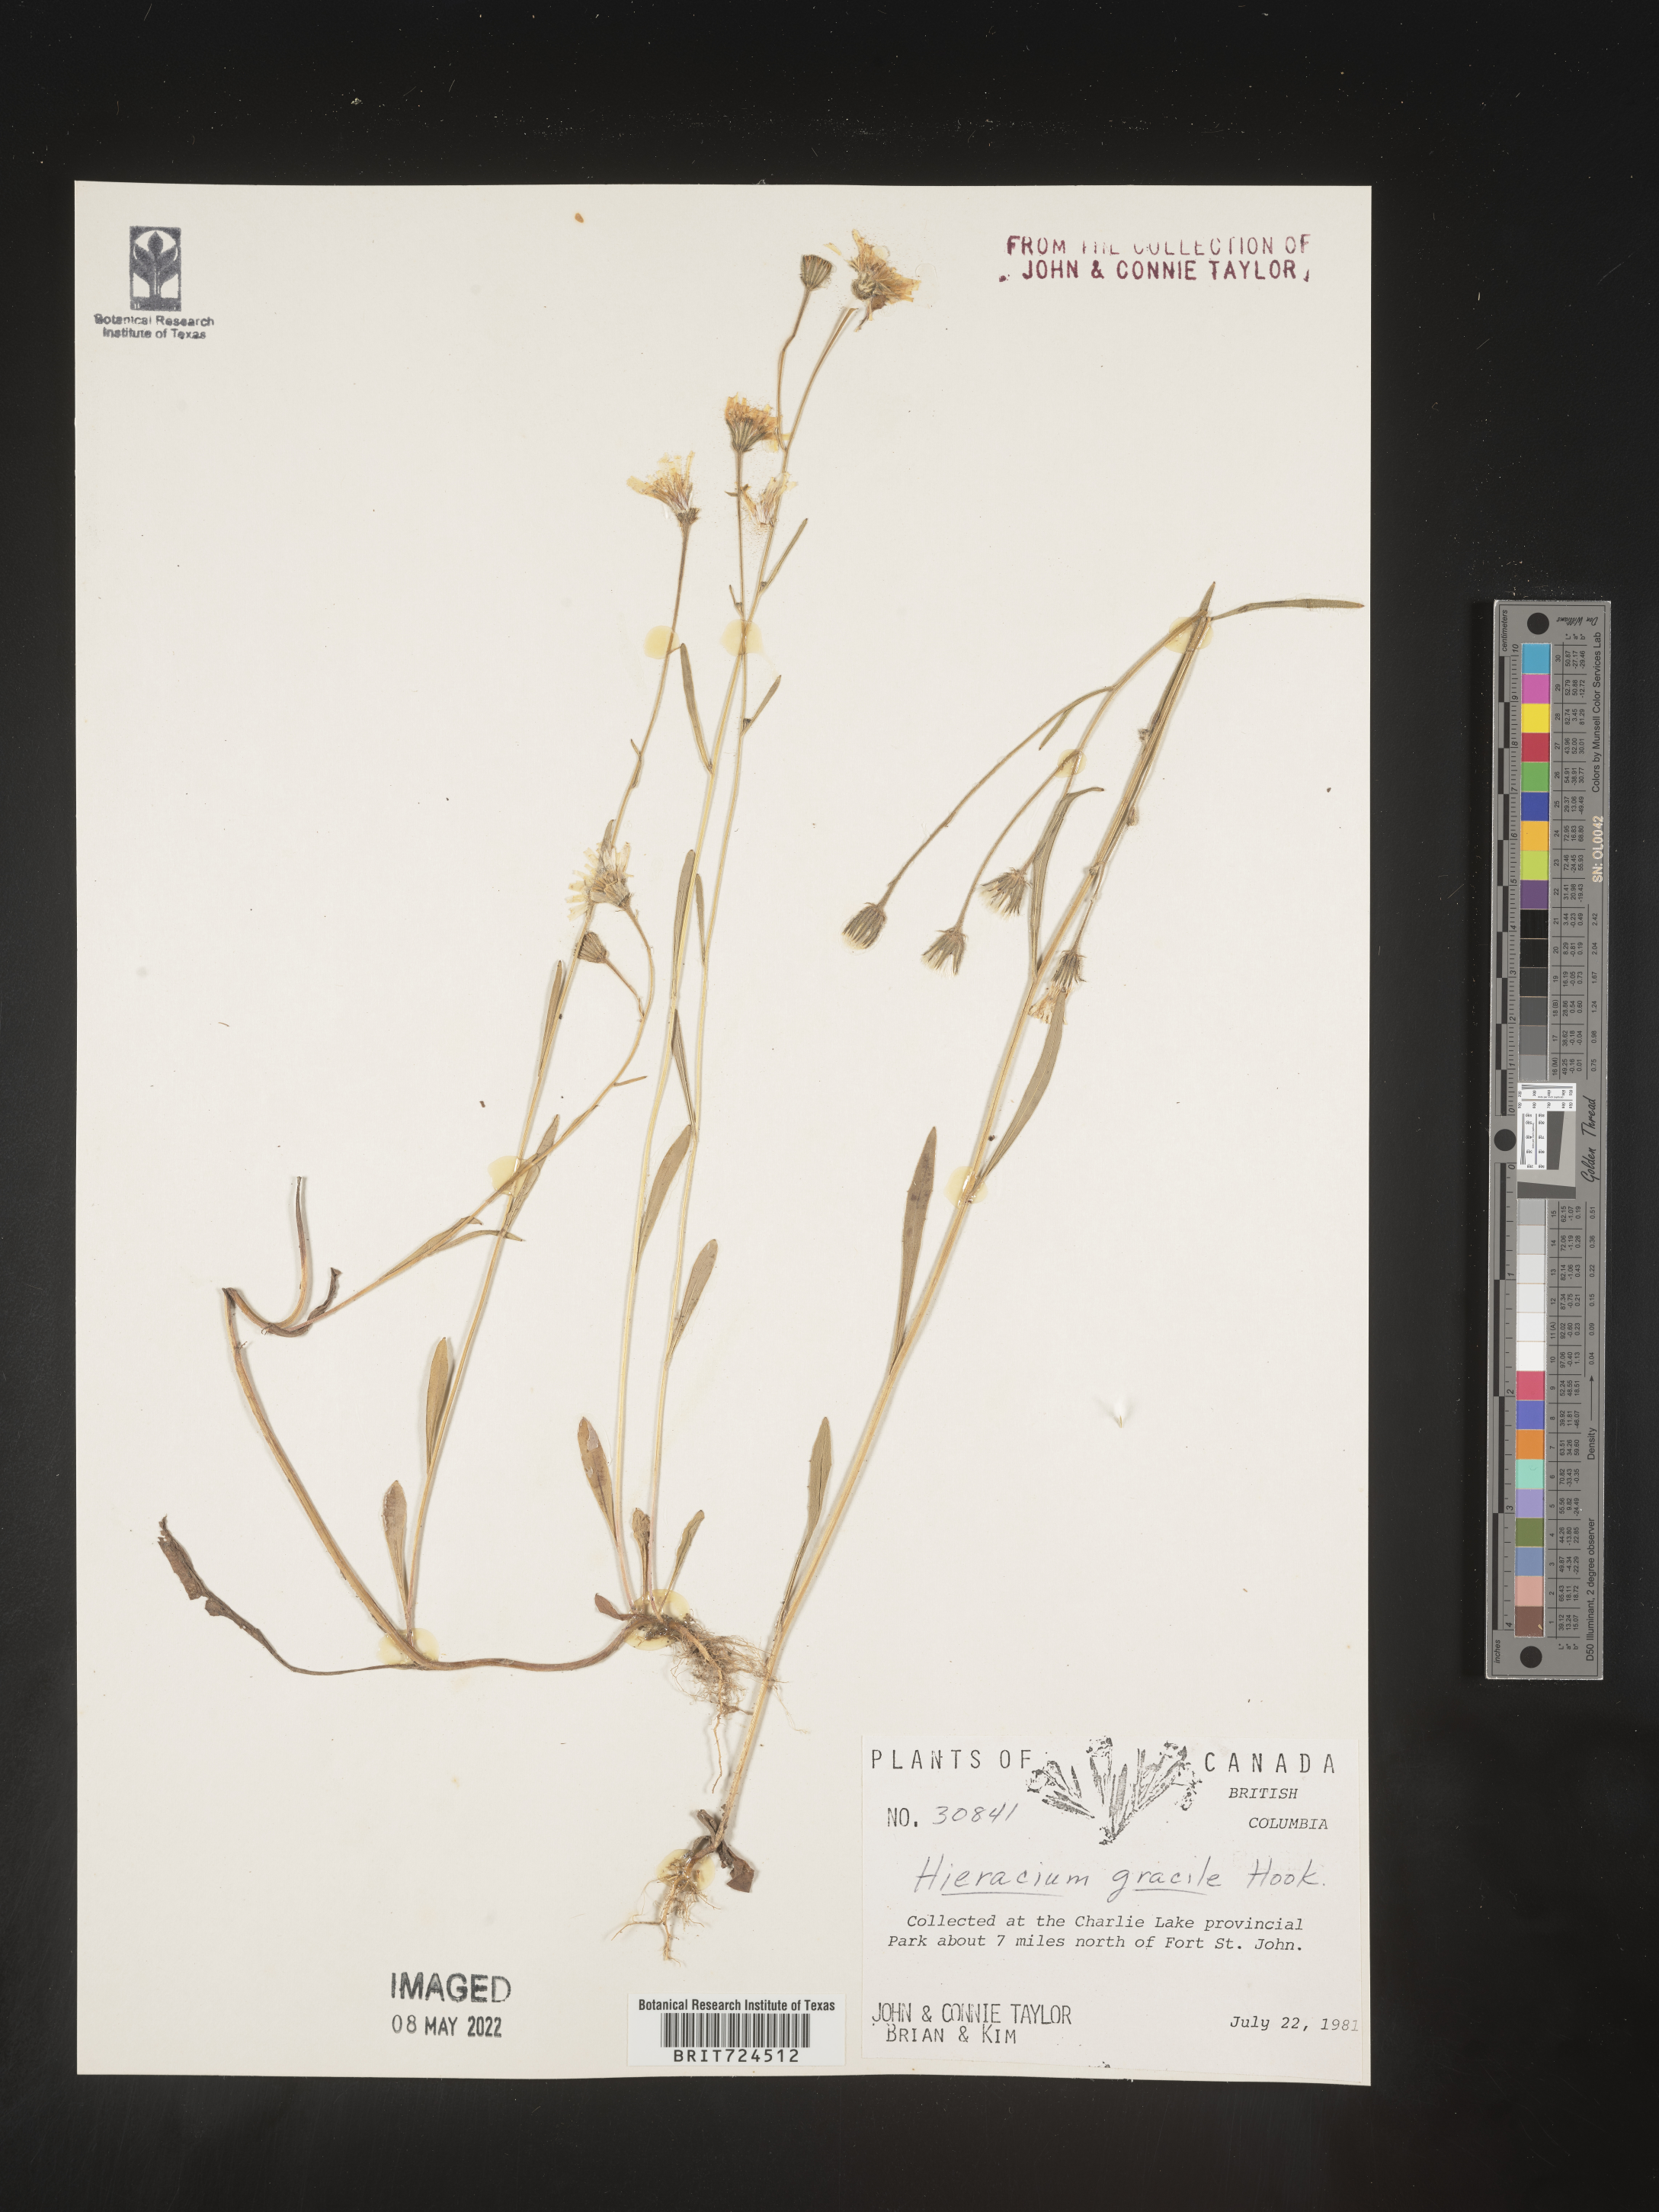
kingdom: Plantae
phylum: Tracheophyta
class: Magnoliopsida
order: Asterales
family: Asteraceae
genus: Hieracium
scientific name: Hieracium
